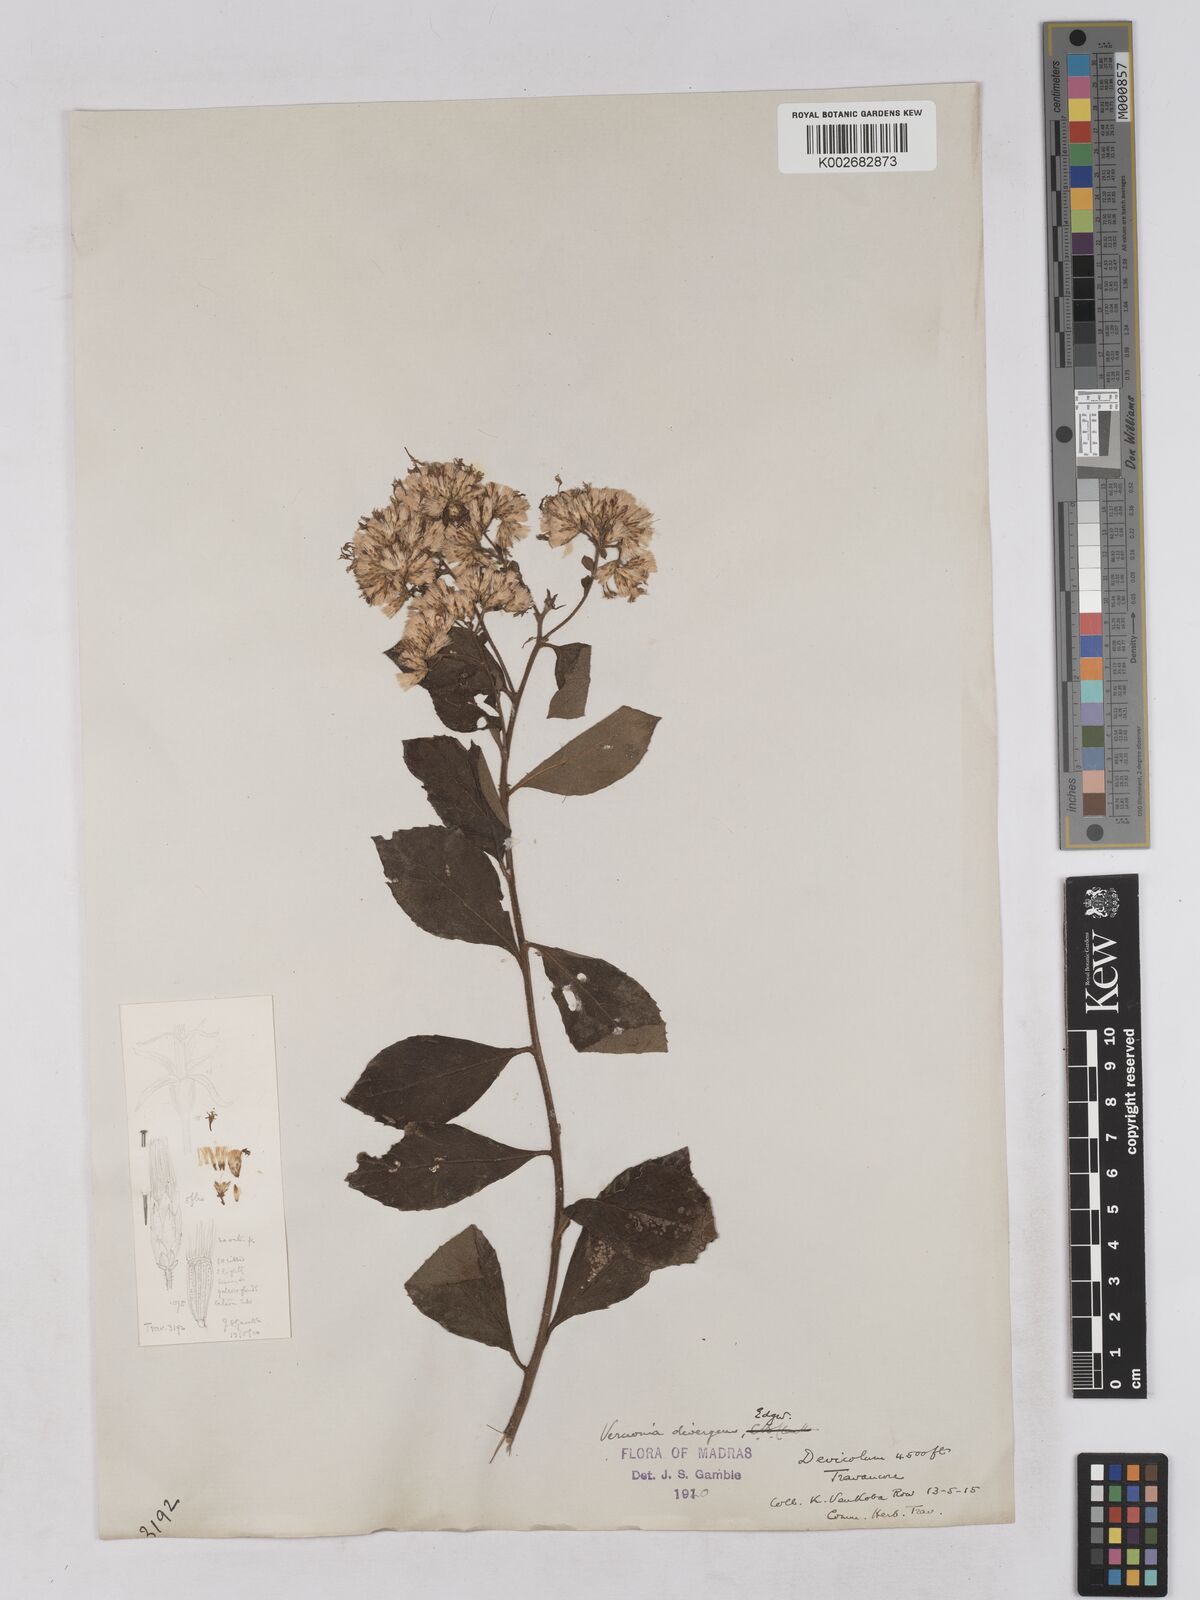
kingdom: Plantae
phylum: Tracheophyta
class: Magnoliopsida
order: Asterales
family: Asteraceae
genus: Acilepis
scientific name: Acilepis divergens
